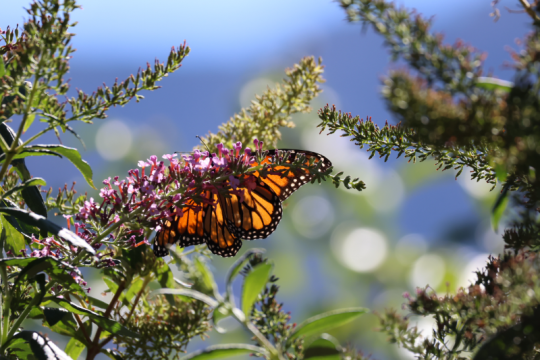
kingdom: Animalia
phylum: Arthropoda
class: Insecta
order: Lepidoptera
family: Nymphalidae
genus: Danaus
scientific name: Danaus plexippus
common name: Monarch
